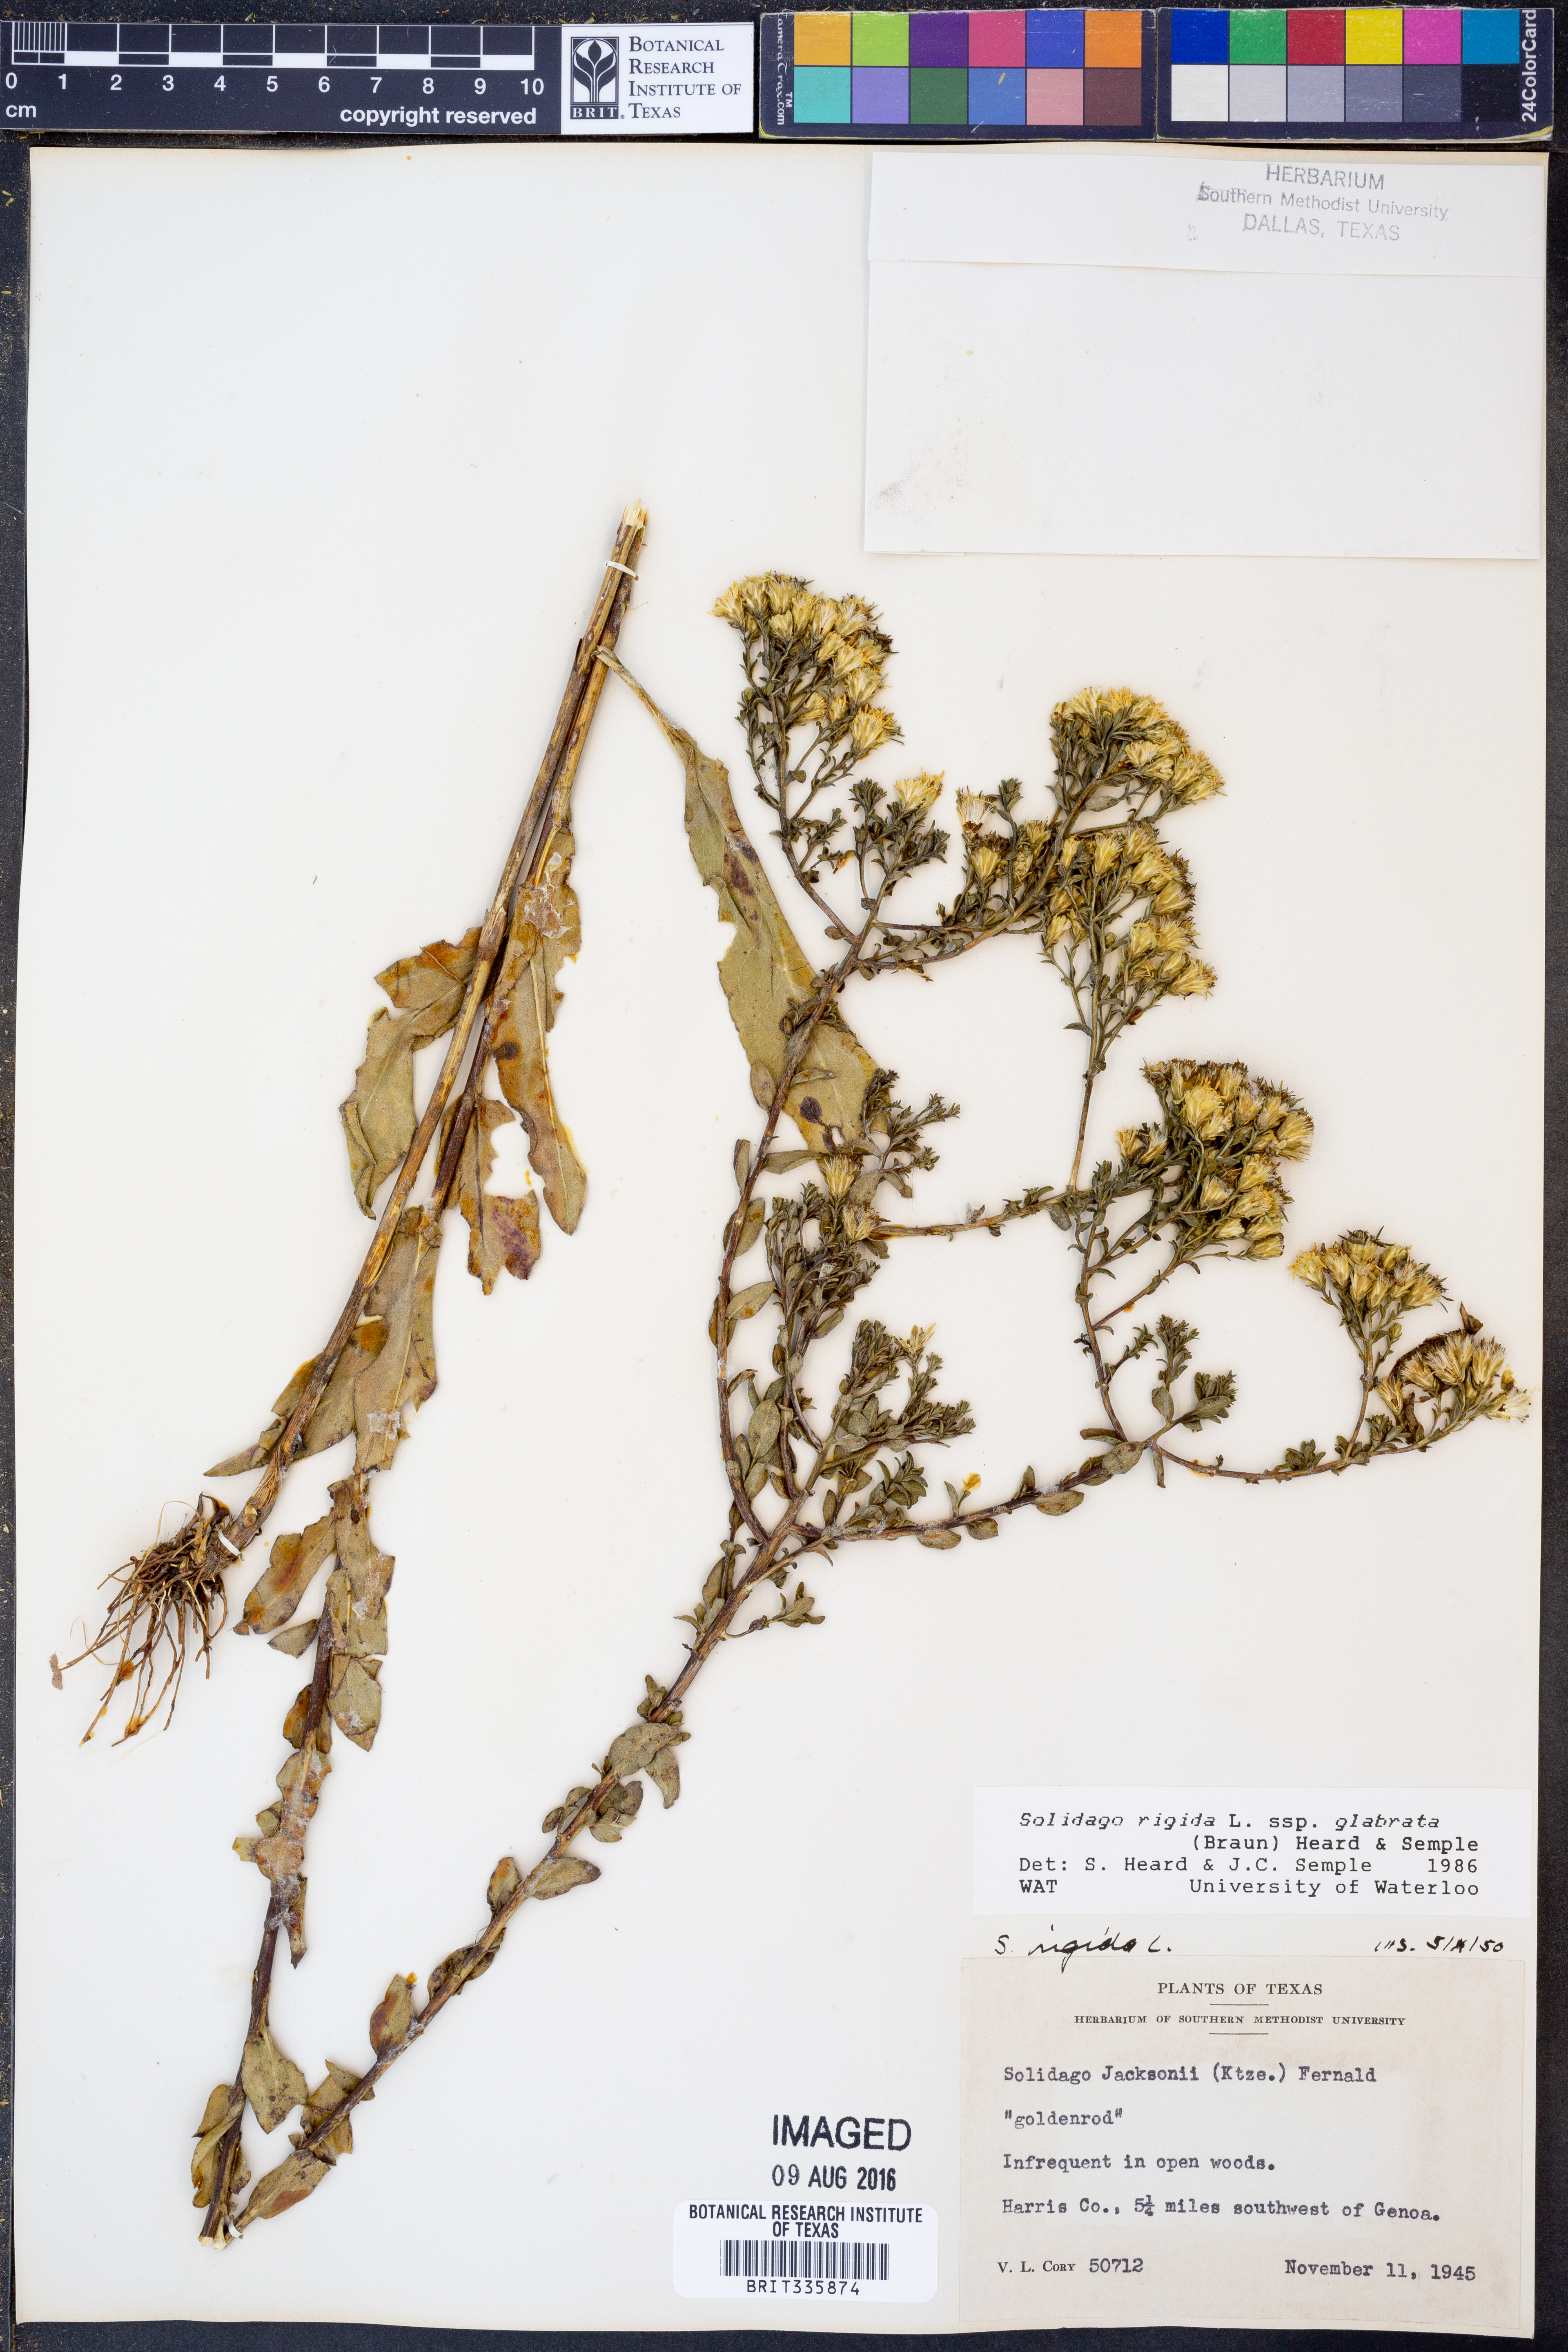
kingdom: Plantae
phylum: Tracheophyta
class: Magnoliopsida
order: Asterales
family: Asteraceae
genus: Solidago
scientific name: Solidago rigida
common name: Rigid goldenrod
